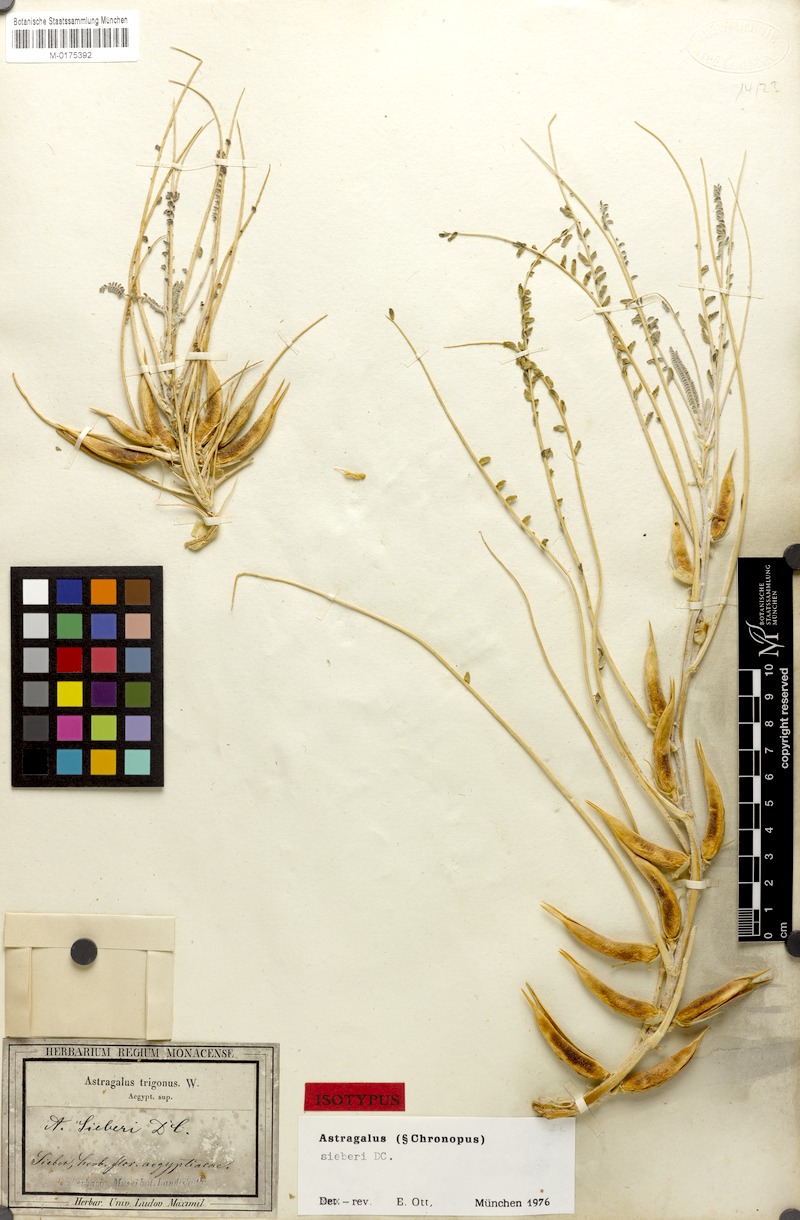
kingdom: Plantae
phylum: Tracheophyta
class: Magnoliopsida
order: Fabales
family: Fabaceae
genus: Astragalus
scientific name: Astragalus sieberi
